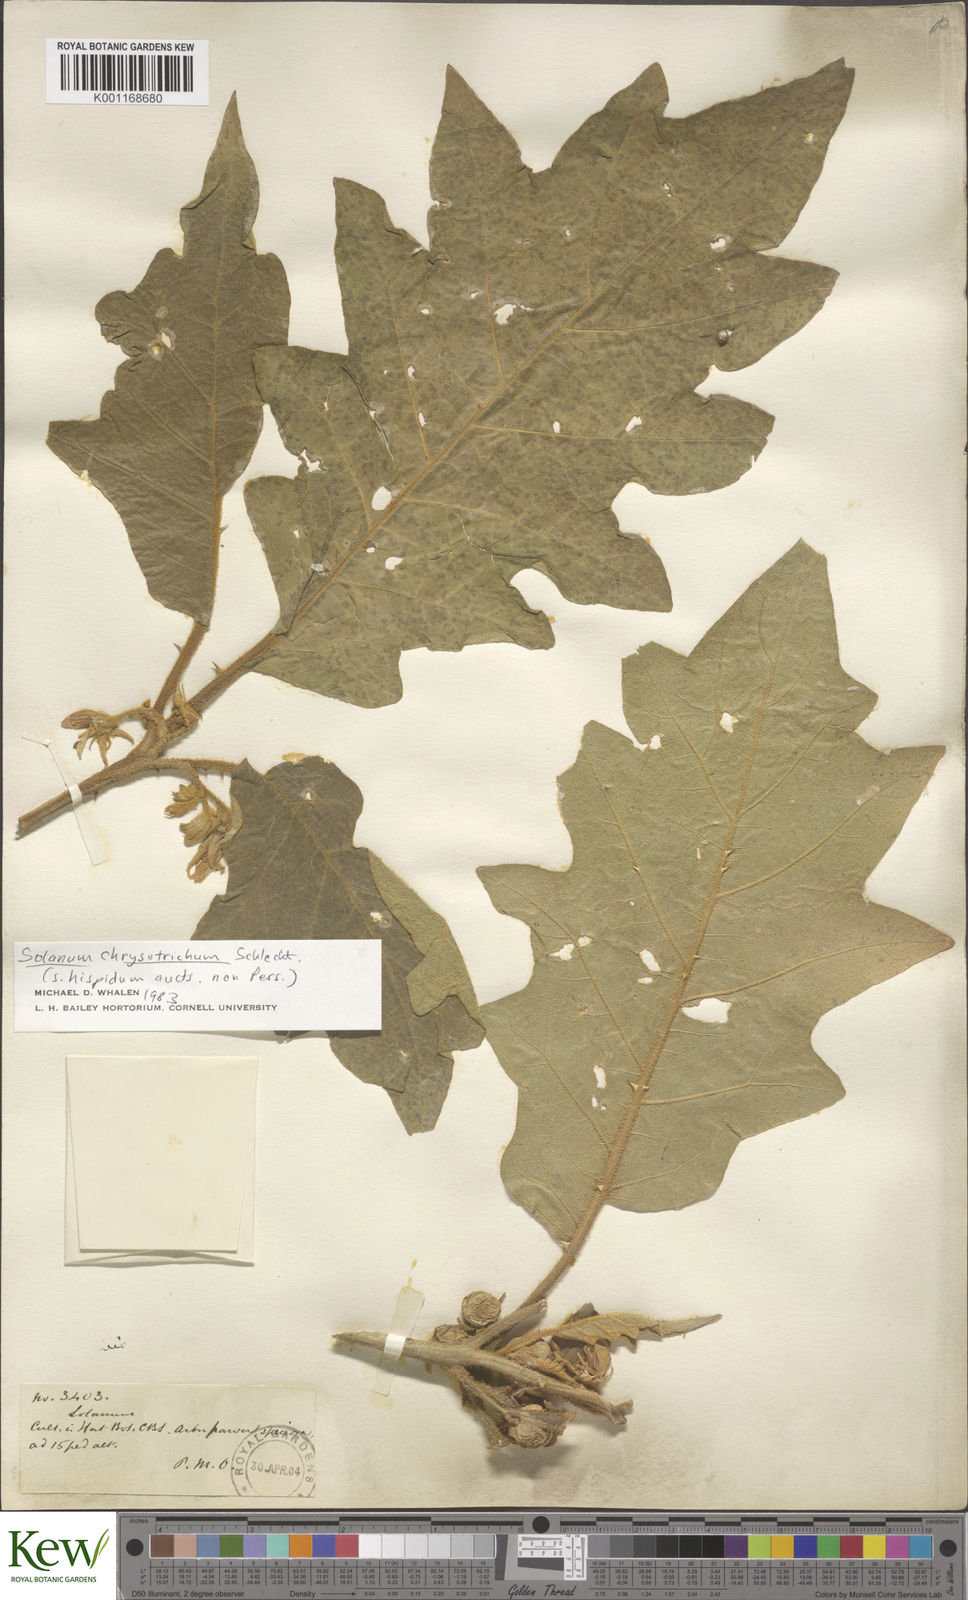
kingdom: Plantae
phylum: Tracheophyta
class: Magnoliopsida
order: Solanales
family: Solanaceae
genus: Solanum
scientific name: Solanum chrysotrichum
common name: Nightshade
